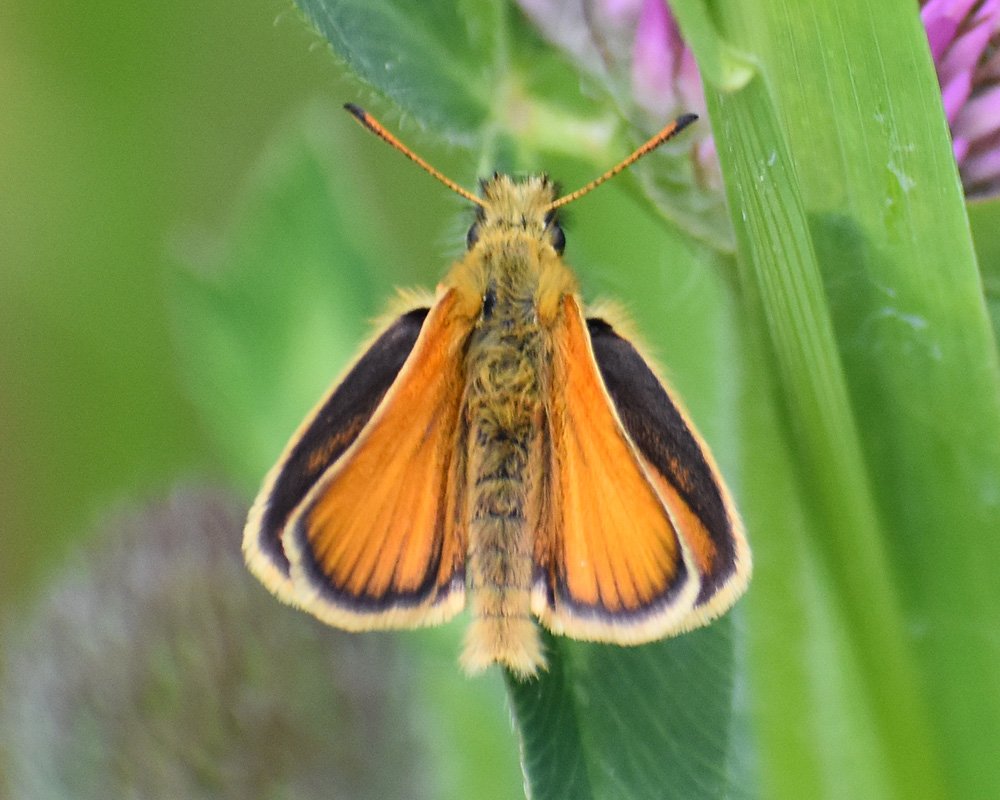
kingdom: Animalia
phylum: Arthropoda
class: Insecta
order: Lepidoptera
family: Hesperiidae
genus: Thymelicus
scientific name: Thymelicus lineola
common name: European Skipper
